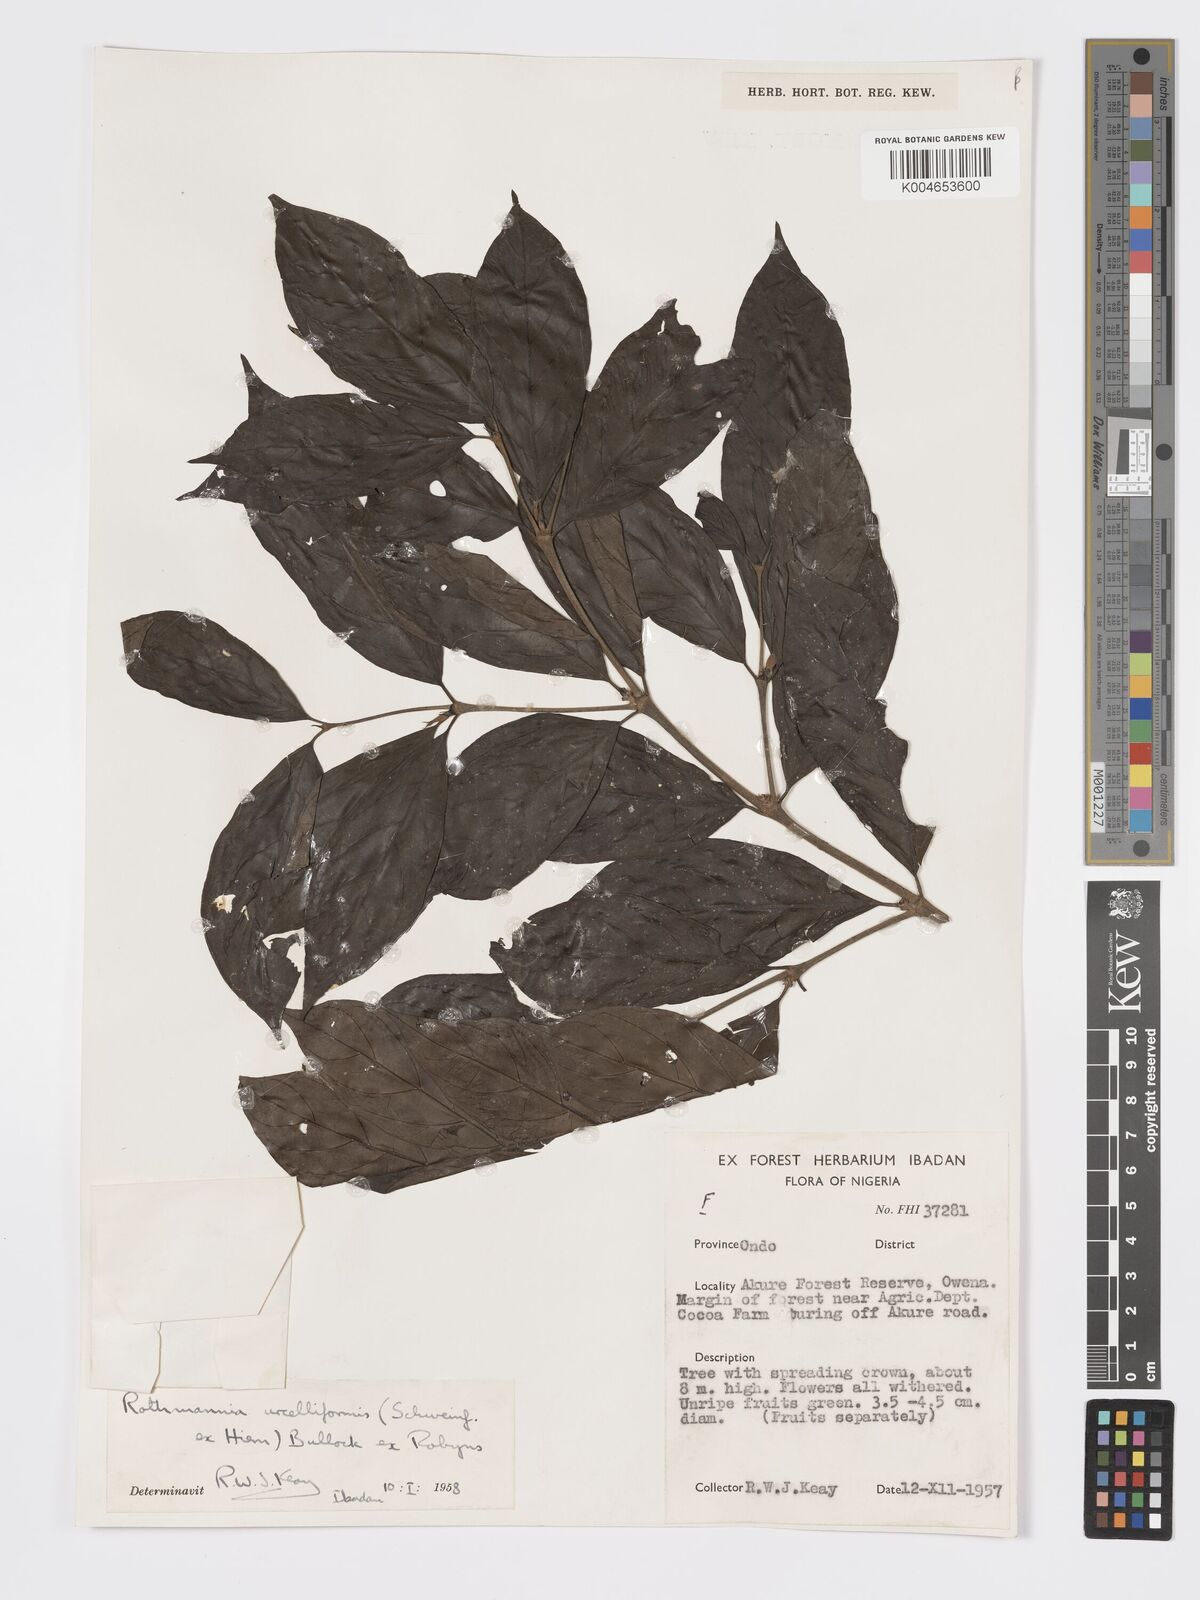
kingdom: Plantae
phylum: Tracheophyta
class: Magnoliopsida
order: Gentianales
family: Rubiaceae
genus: Rothmannia
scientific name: Rothmannia urcelliformis
